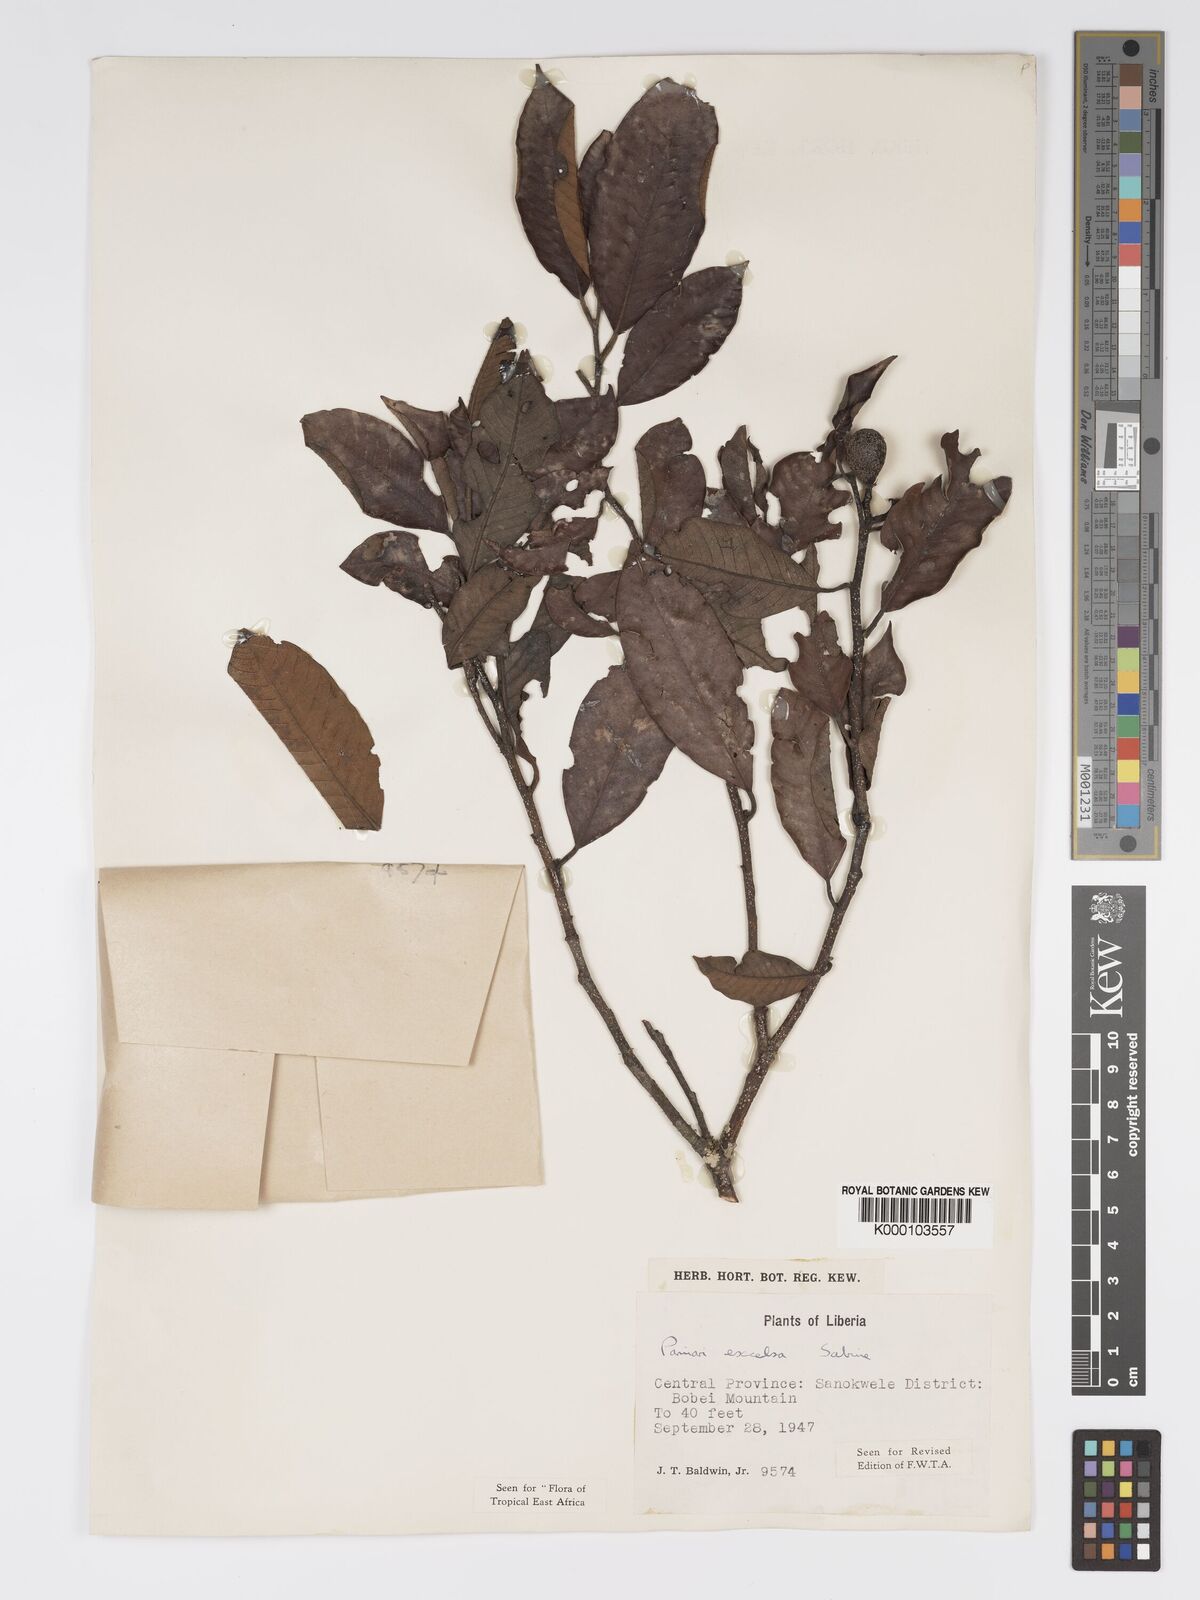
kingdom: Plantae
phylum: Tracheophyta
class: Magnoliopsida
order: Malpighiales
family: Chrysobalanaceae
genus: Parinari
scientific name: Parinari excelsa
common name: Guinea-plum
